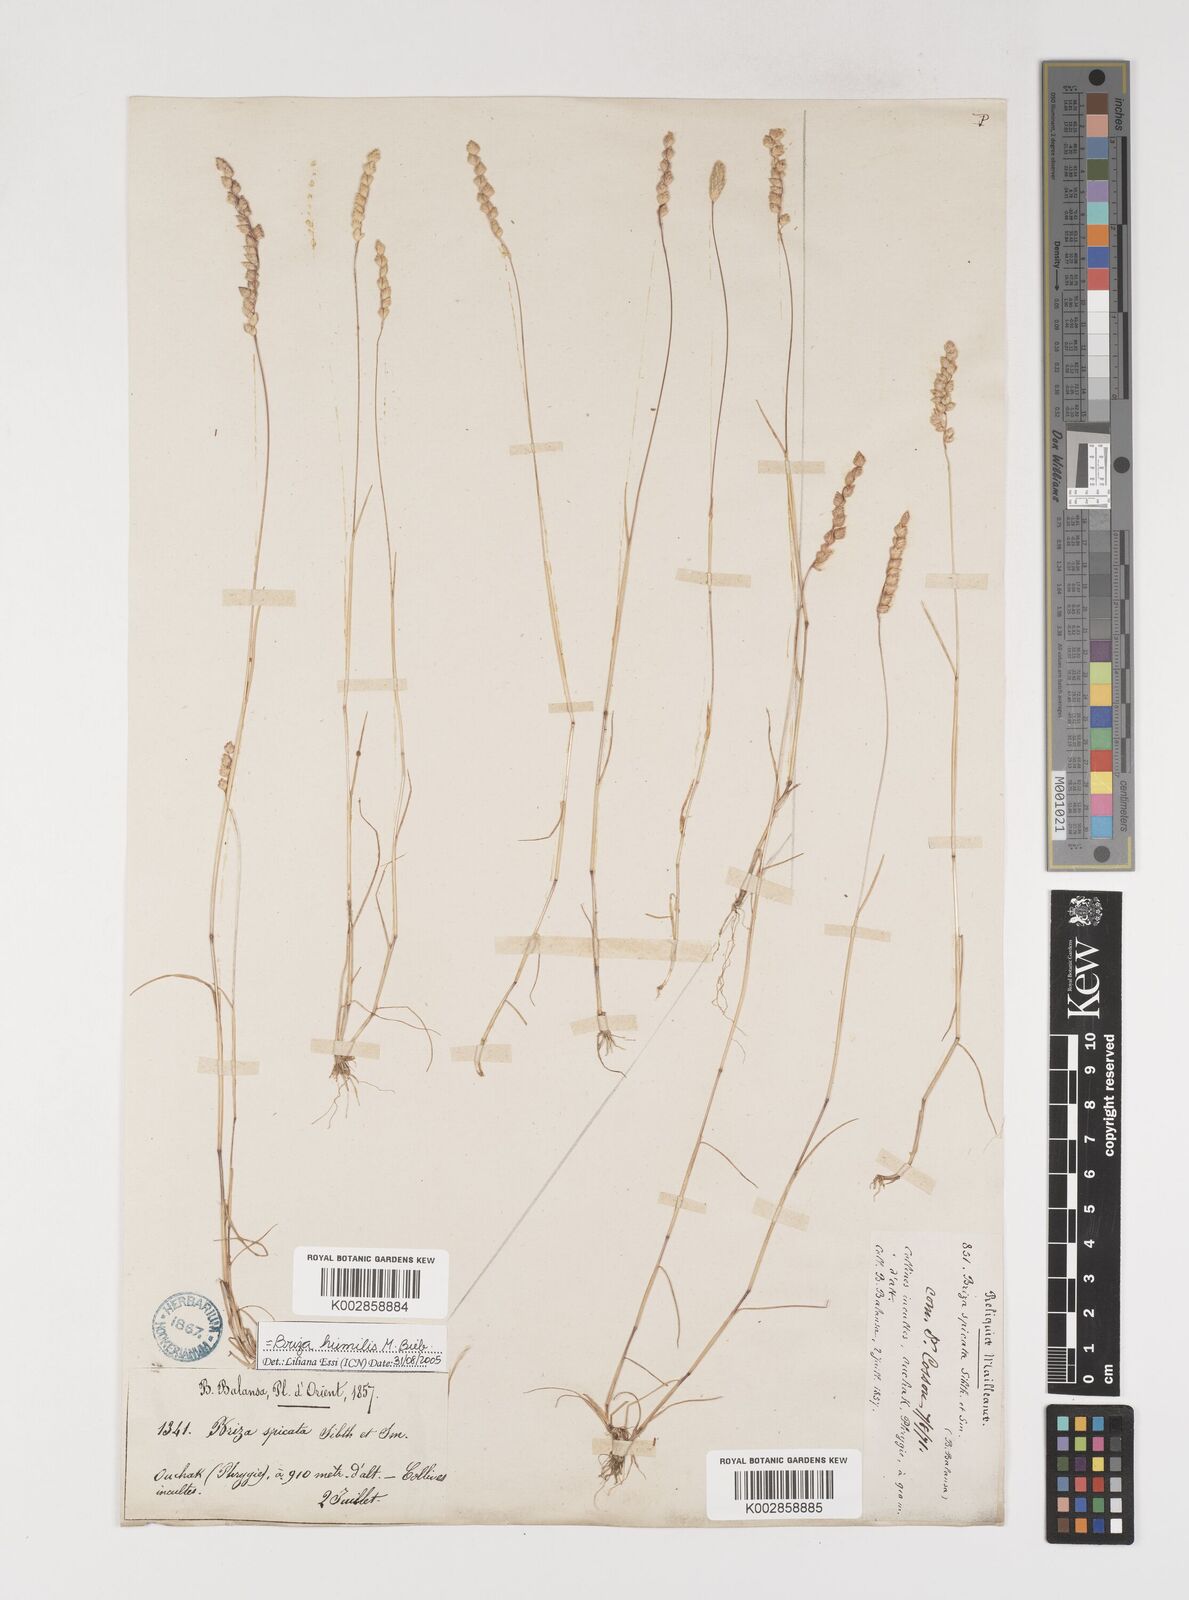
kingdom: Plantae
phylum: Tracheophyta
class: Liliopsida
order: Poales
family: Poaceae
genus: Briza
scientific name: Briza humilis
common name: Spiked quaking grass
